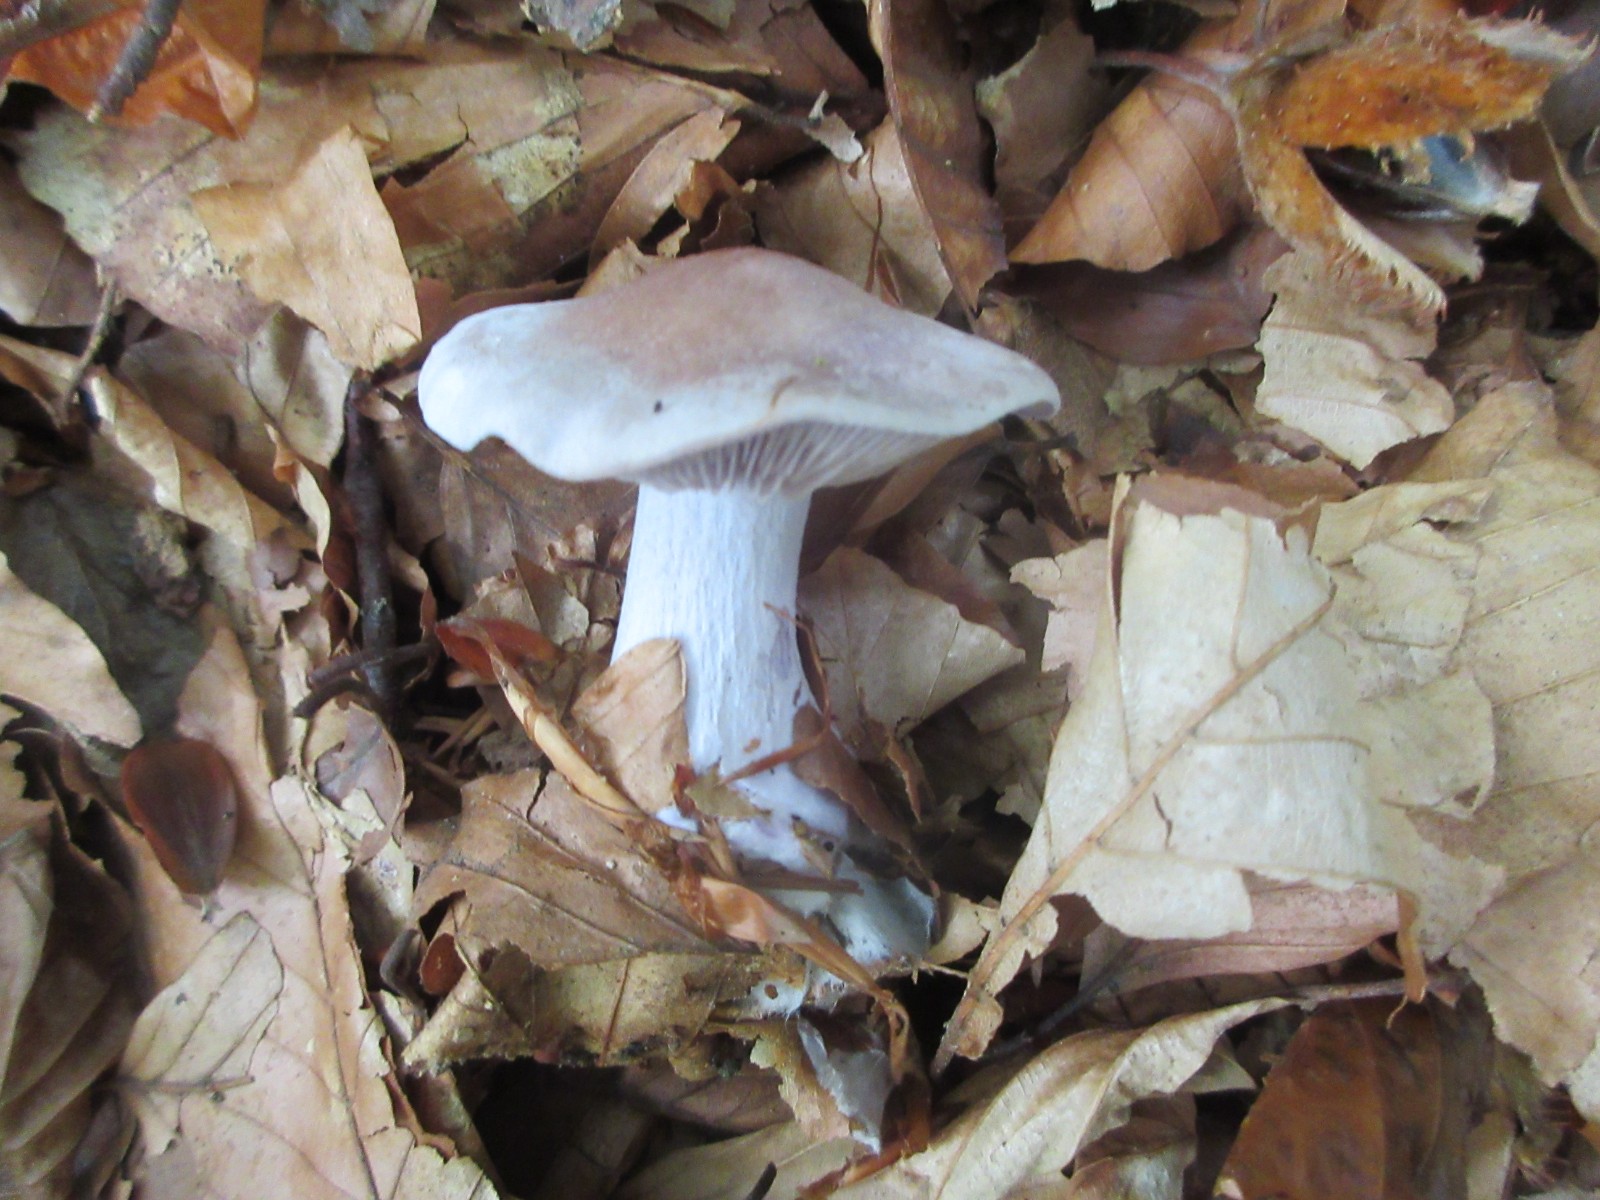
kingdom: Fungi
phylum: Basidiomycota
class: Agaricomycetes
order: Agaricales
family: Tricholomataceae
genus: Clitocybe
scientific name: Clitocybe nebularis
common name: tåge-tragthat
